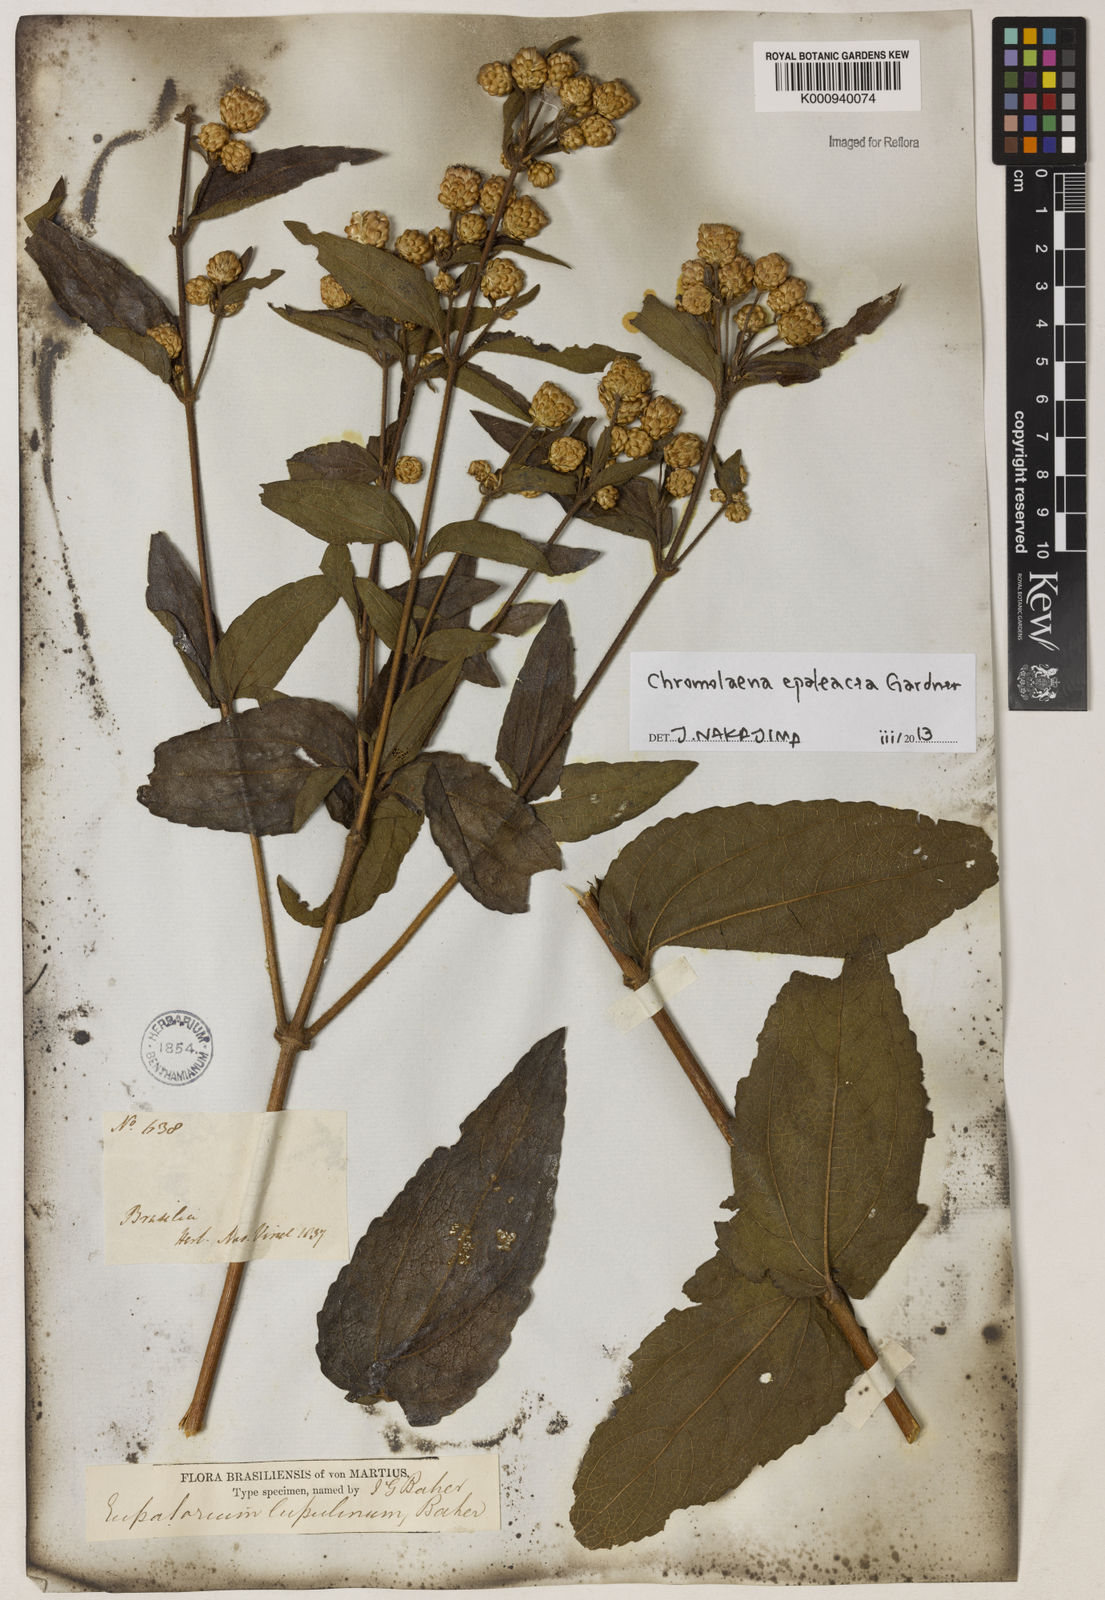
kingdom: Plantae
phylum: Tracheophyta
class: Magnoliopsida
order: Asterales
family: Asteraceae
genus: Chromolaena
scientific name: Chromolaena epaleacea
